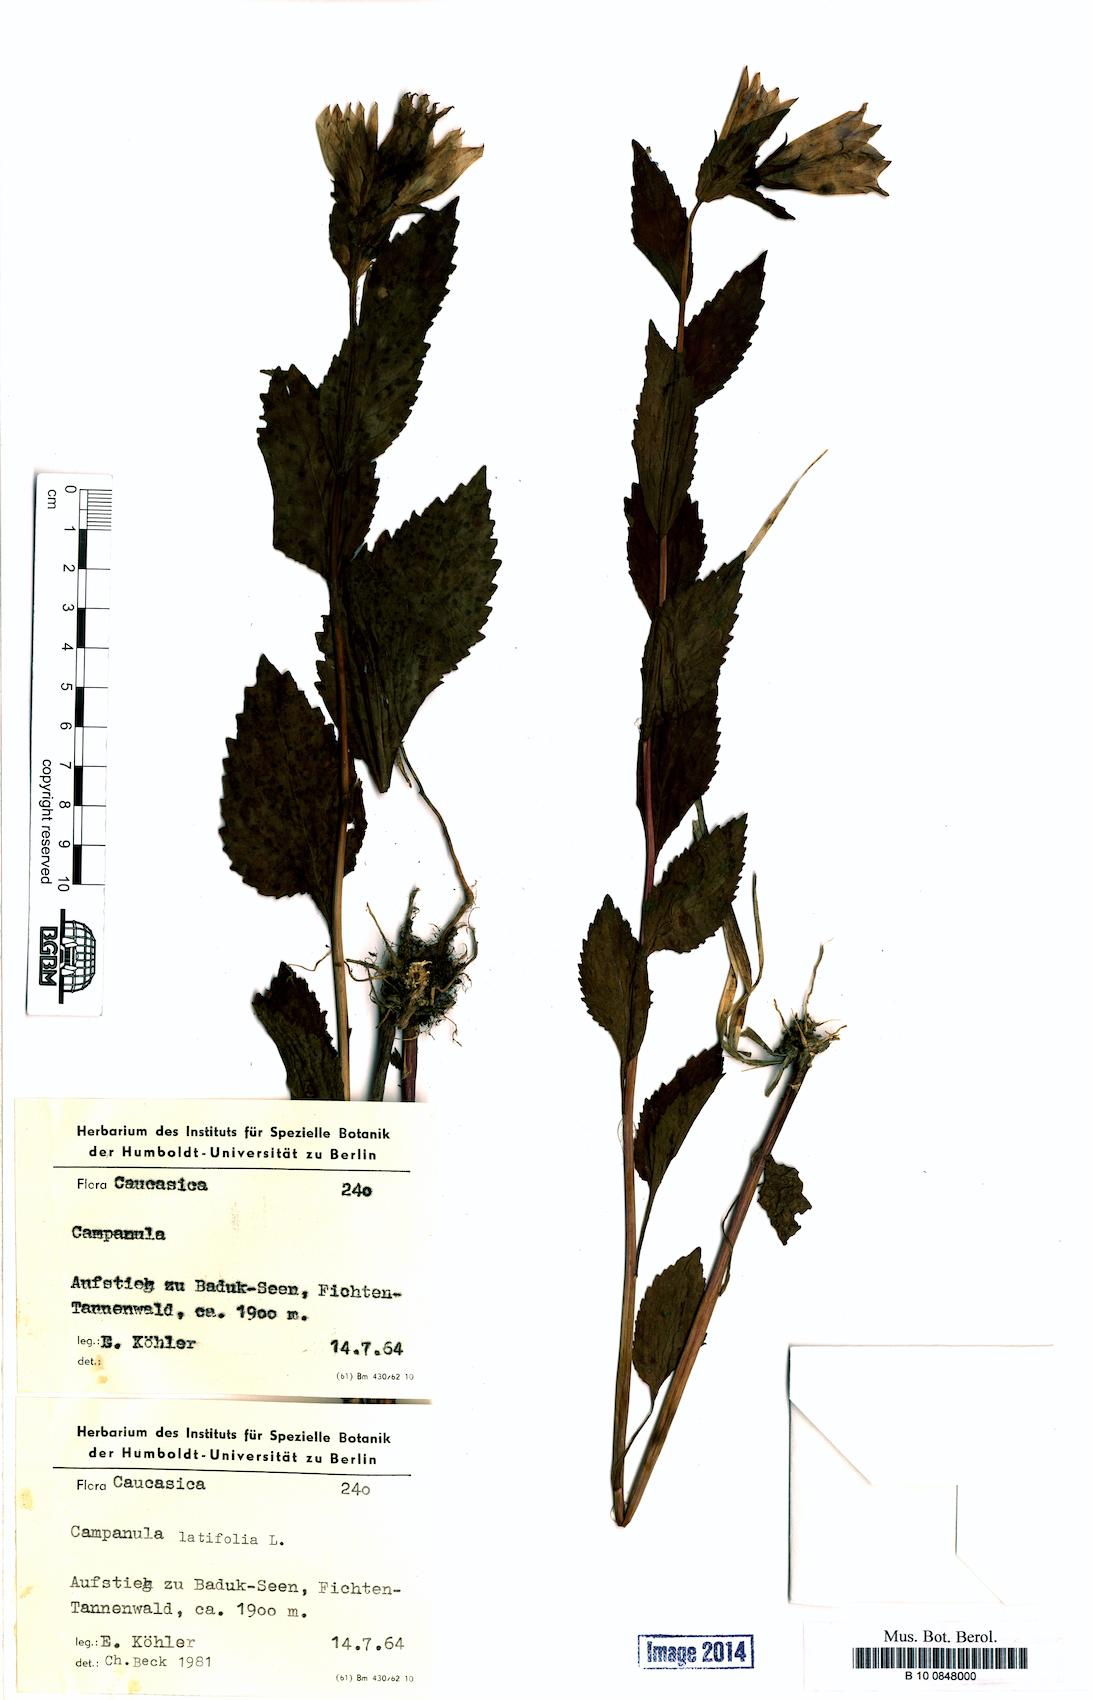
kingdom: Plantae
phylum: Tracheophyta
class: Magnoliopsida
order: Asterales
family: Campanulaceae
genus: Campanula
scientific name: Campanula latifolia
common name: Giant bellflower
